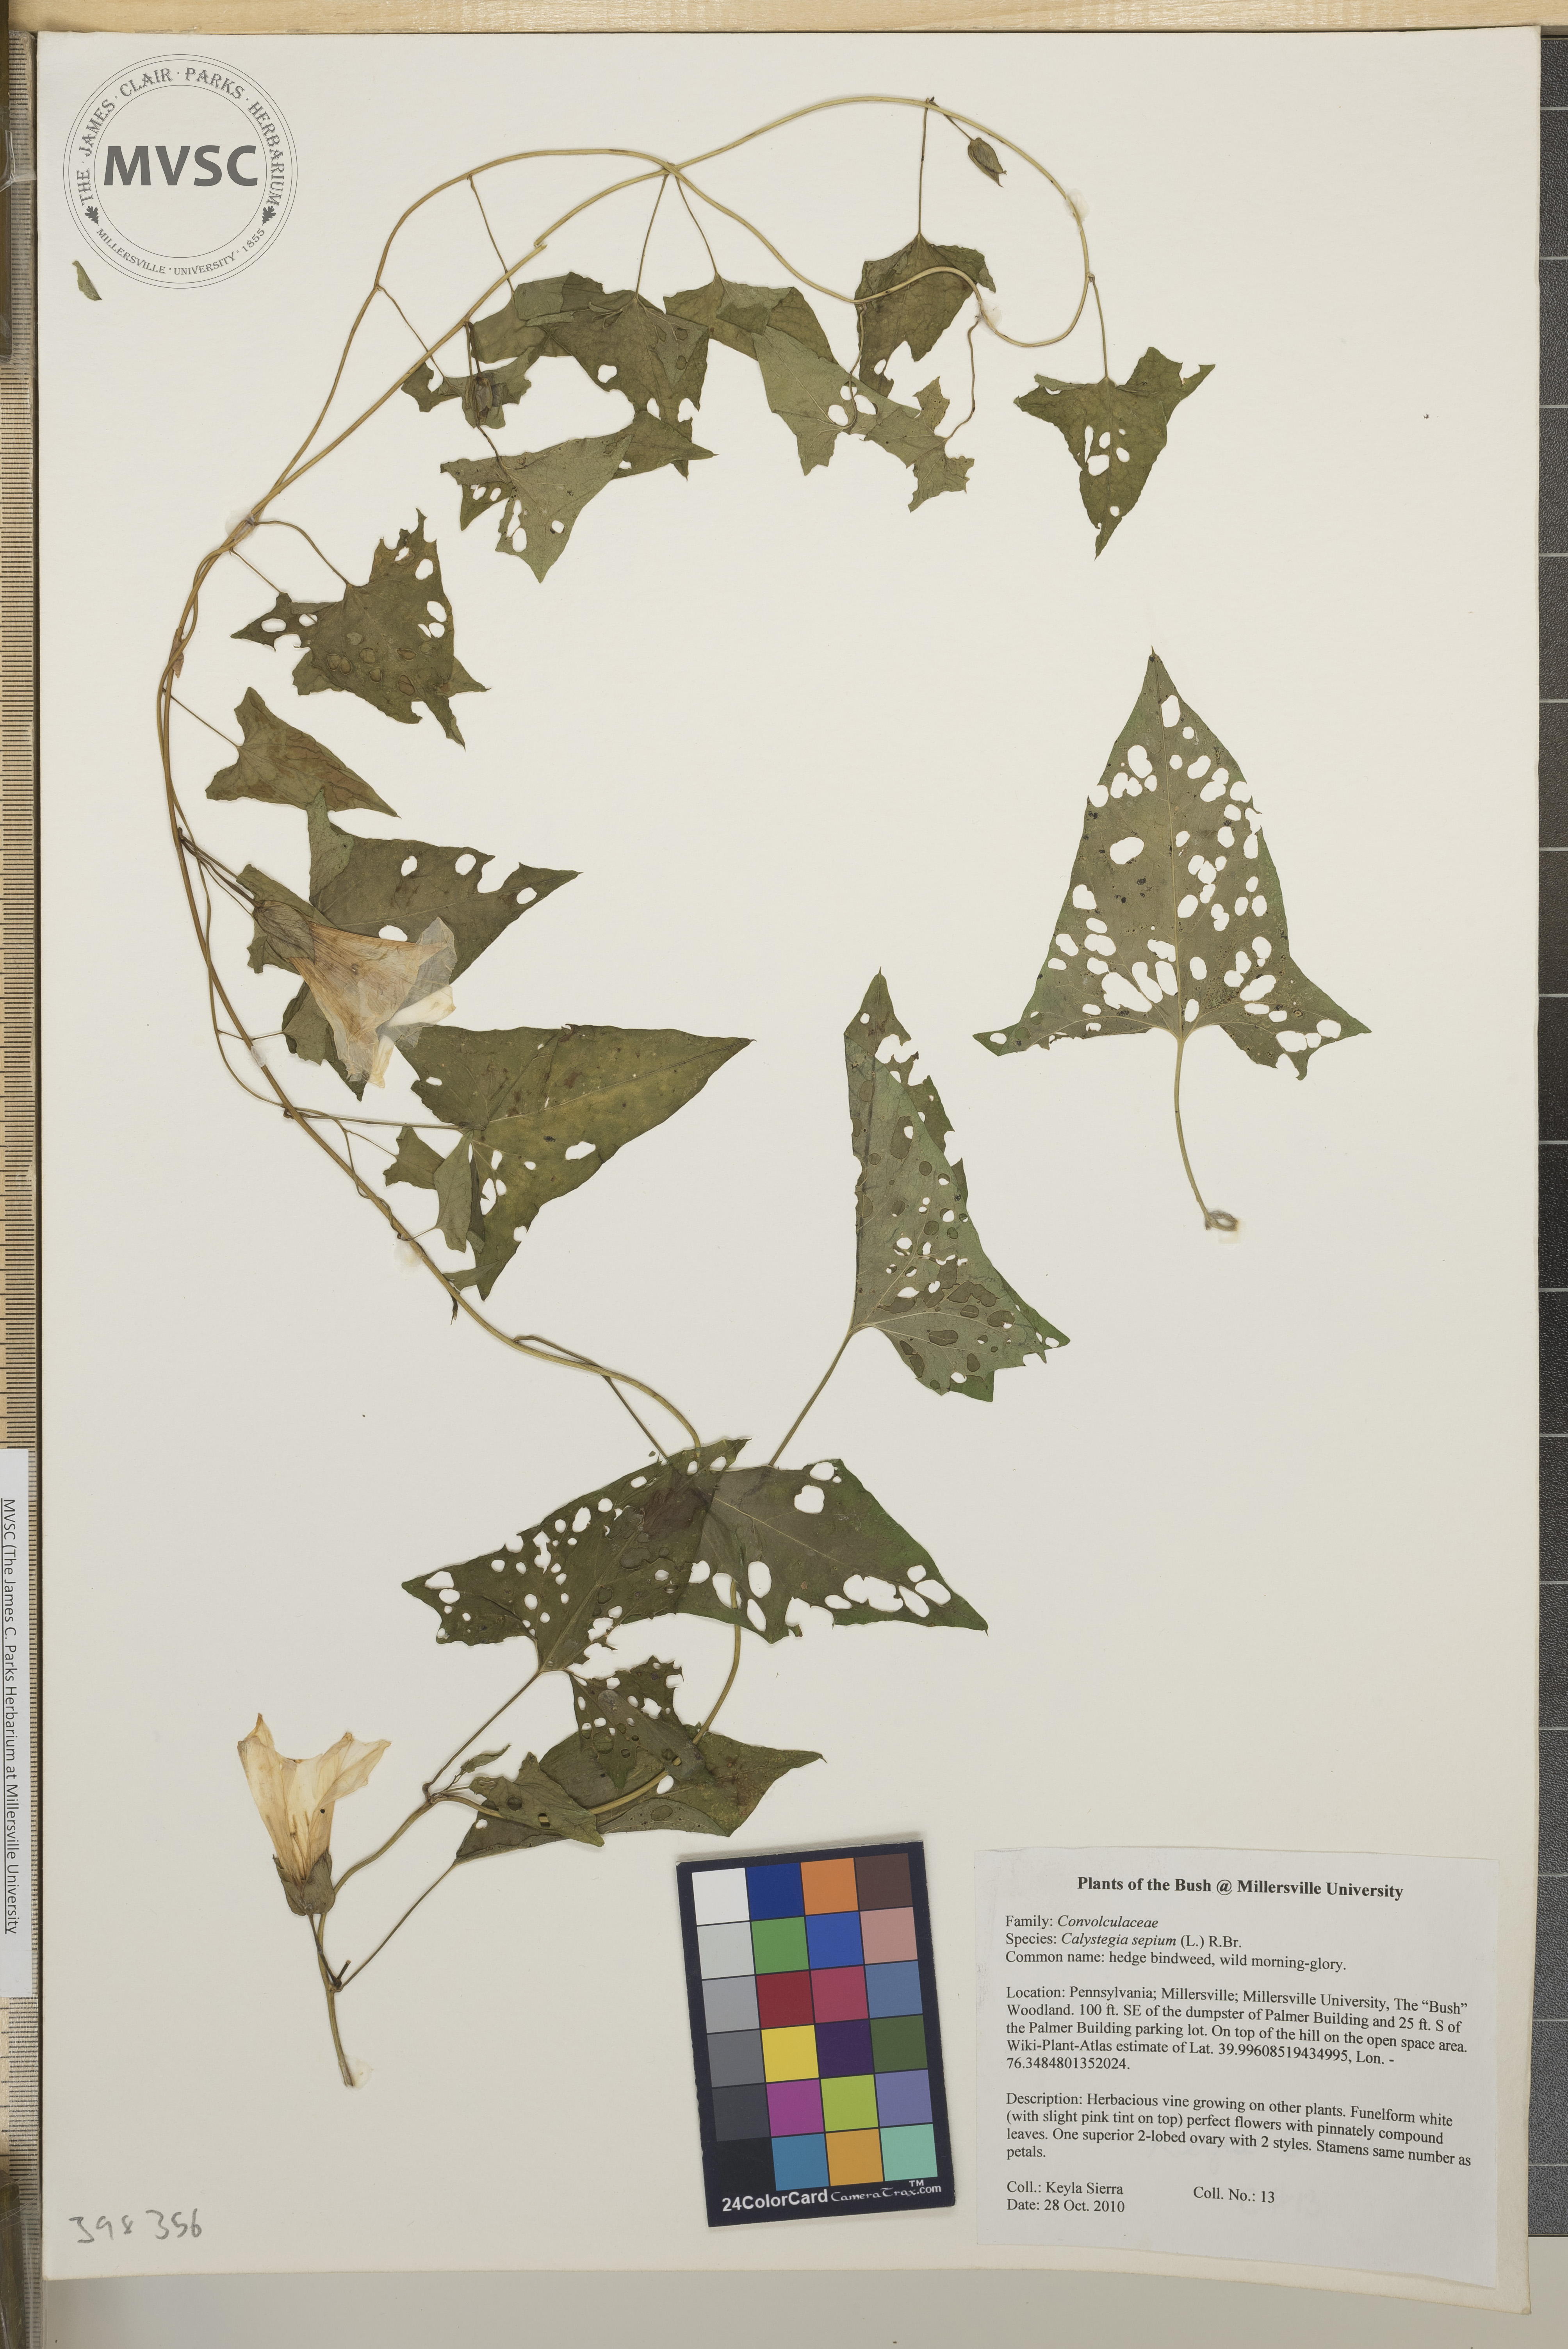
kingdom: Plantae
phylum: Tracheophyta
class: Magnoliopsida
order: Solanales
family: Convolvulaceae
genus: Calystegia
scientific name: Calystegia sepium
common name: Hedge bindweed
